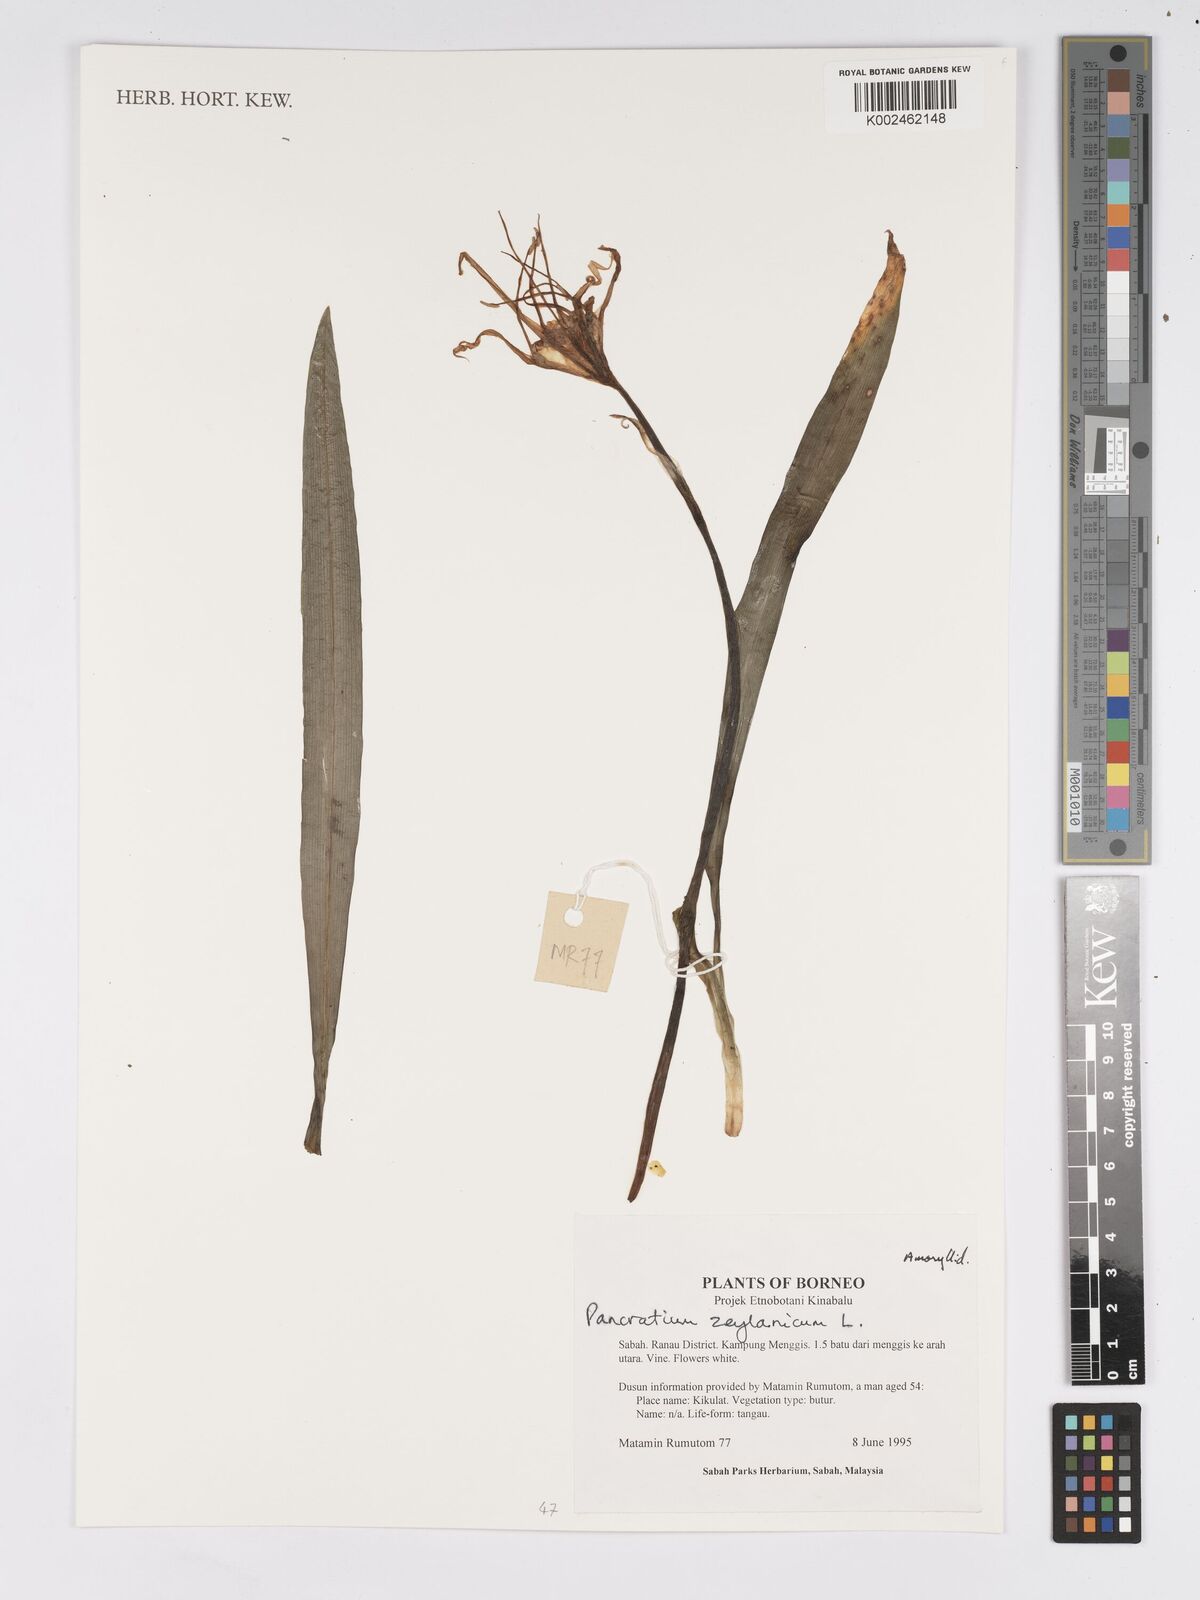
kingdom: Plantae
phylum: Tracheophyta
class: Liliopsida
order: Asparagales
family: Amaryllidaceae
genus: Pancratium
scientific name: Pancratium zeylanicum
